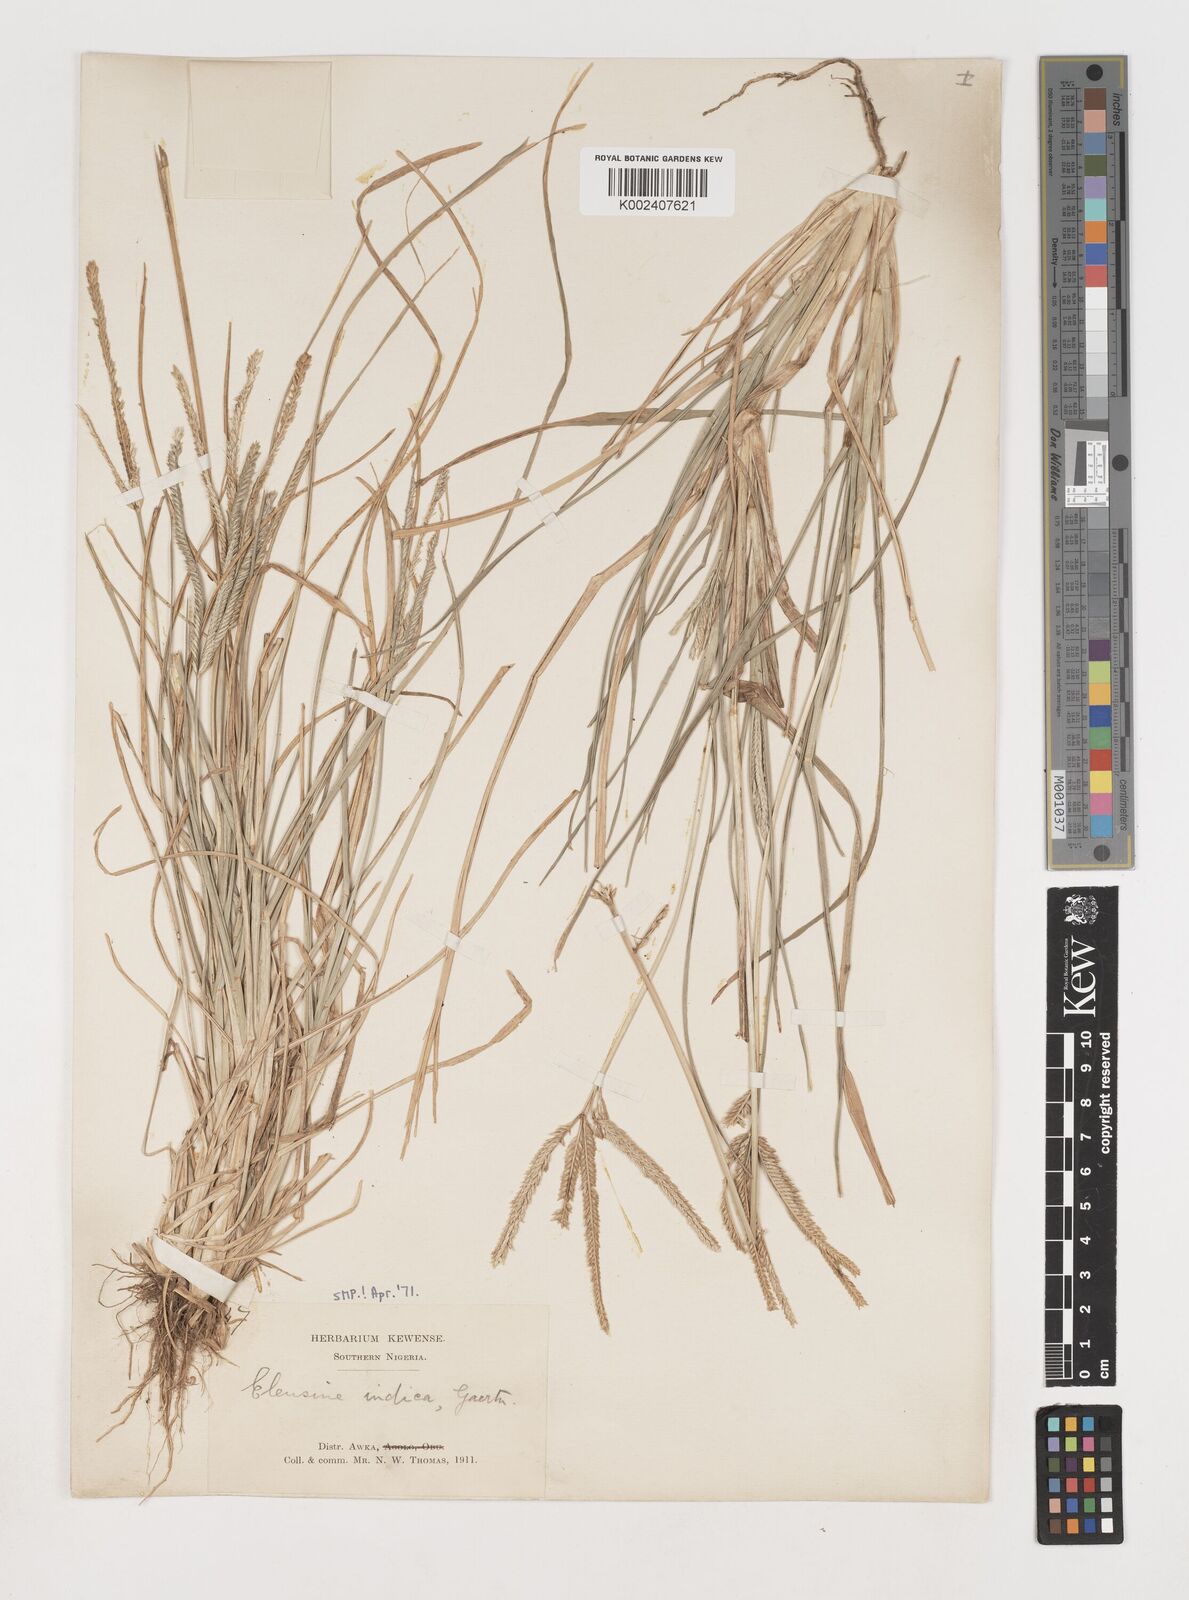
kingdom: Plantae
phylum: Tracheophyta
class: Liliopsida
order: Poales
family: Poaceae
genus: Eleusine
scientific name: Eleusine indica
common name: Yard-grass
